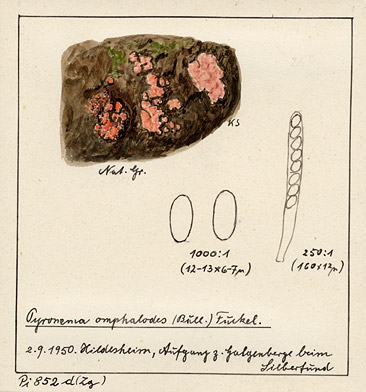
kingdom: Fungi
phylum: Ascomycota
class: Pezizomycetes
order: Pezizales
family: Pyronemataceae
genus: Pyronema
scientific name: Pyronema omphalodes
